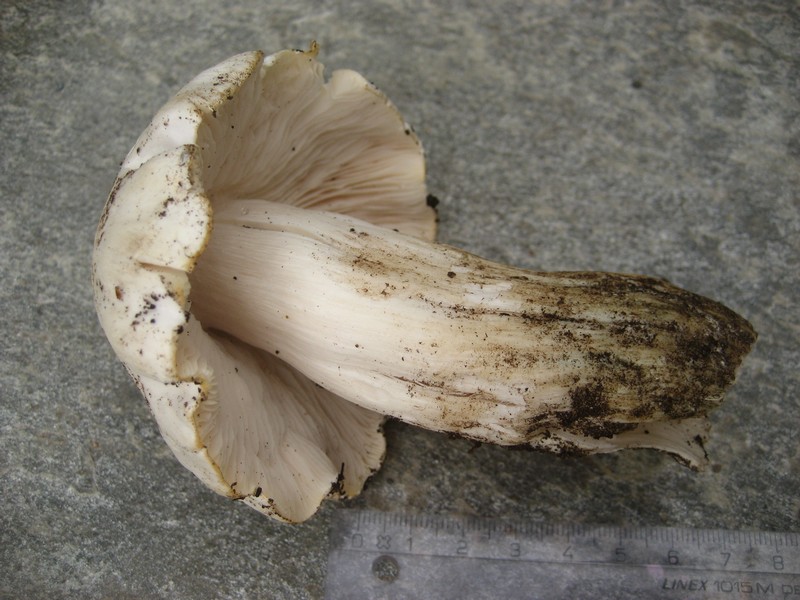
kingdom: Fungi
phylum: Basidiomycota
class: Agaricomycetes
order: Agaricales
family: Tricholomataceae
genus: Tricholoma
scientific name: Tricholoma columbetta
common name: silke-ridderhat
